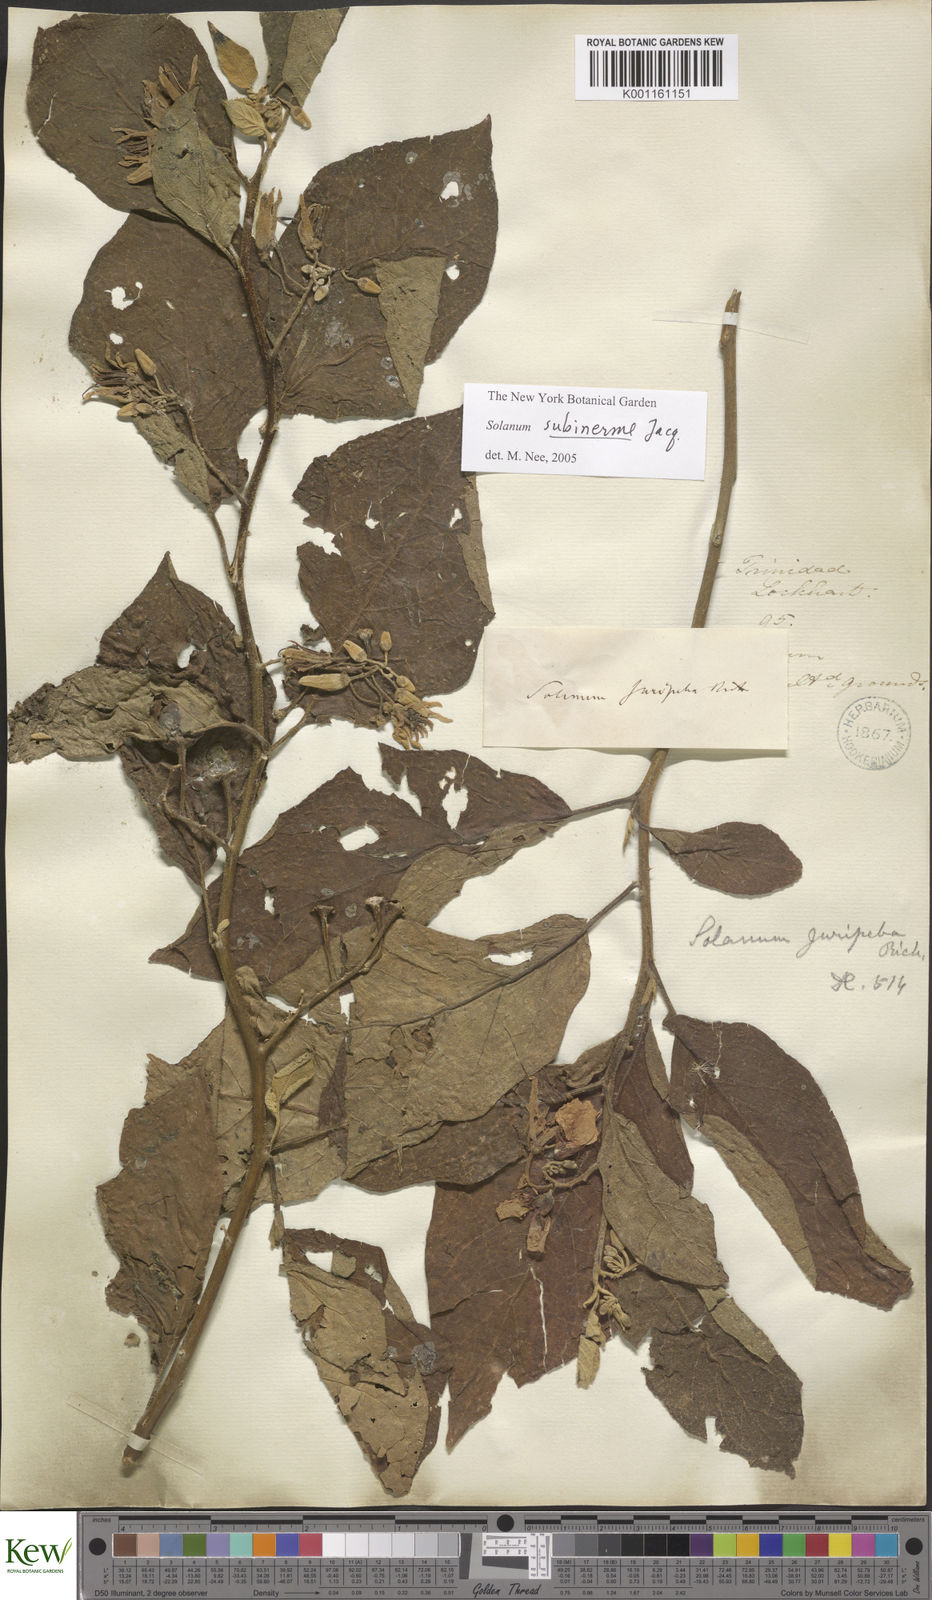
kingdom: Plantae
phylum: Tracheophyta
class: Magnoliopsida
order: Solanales
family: Solanaceae
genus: Solanum
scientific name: Solanum subinerme
